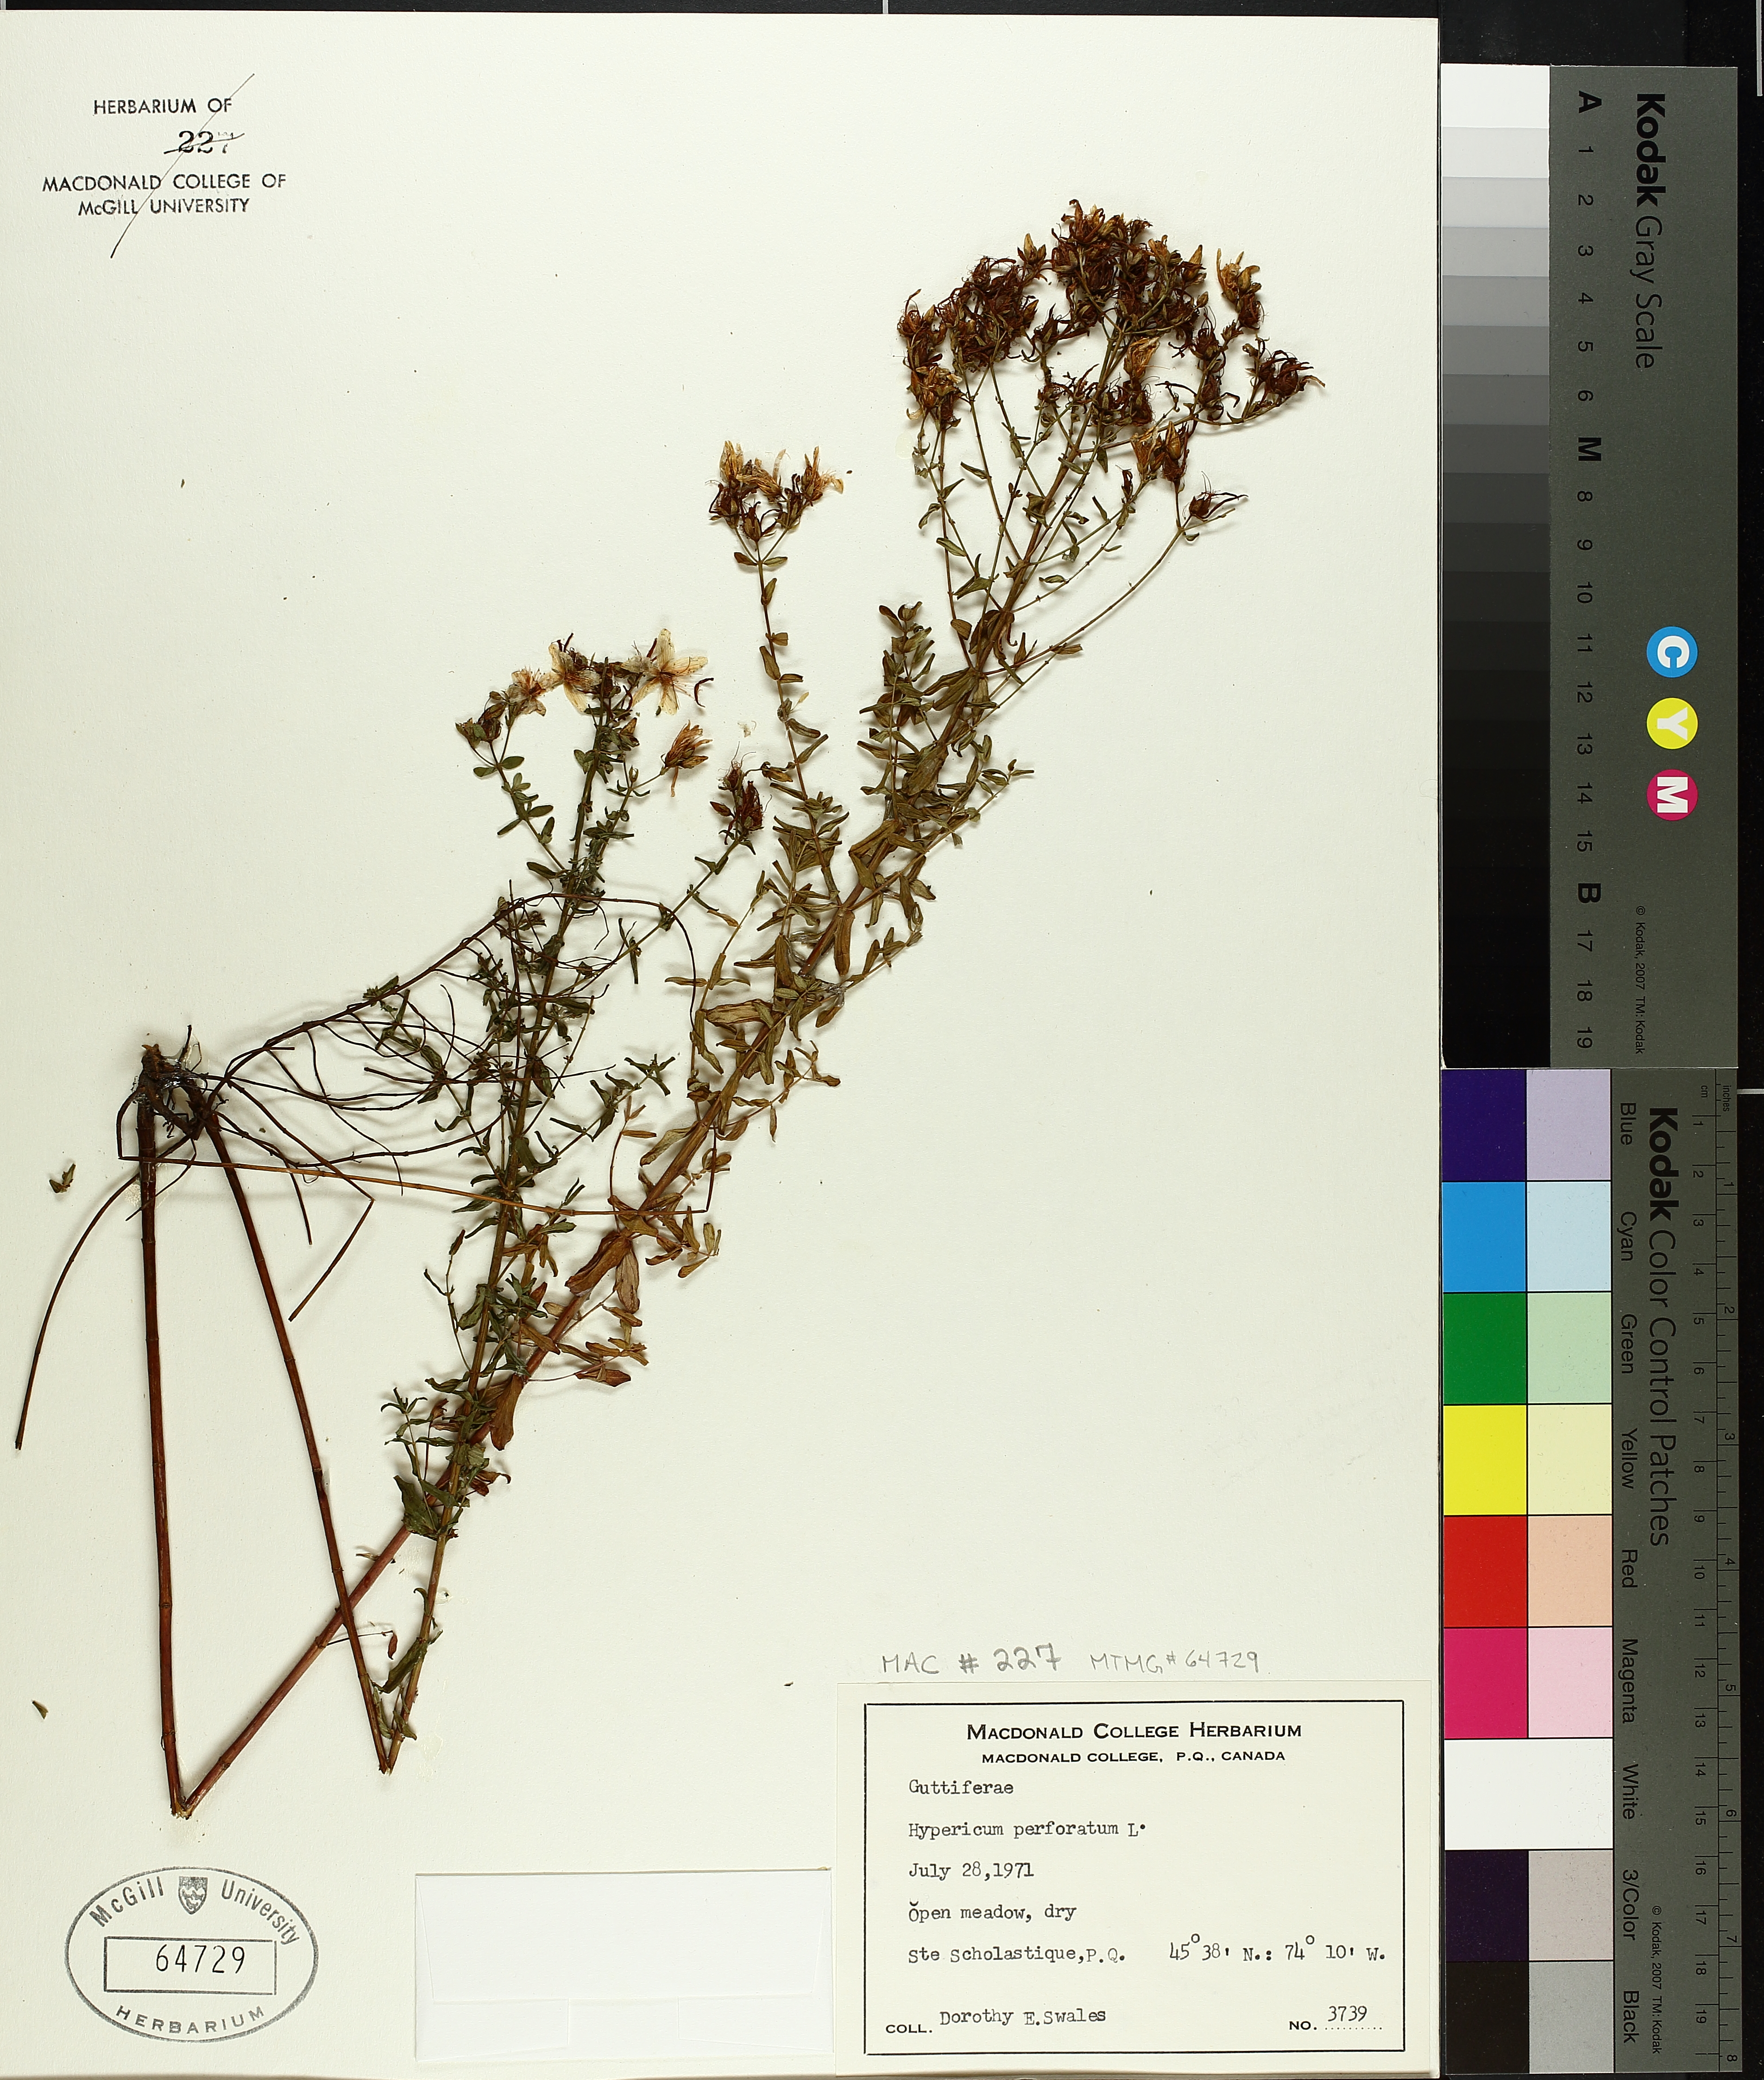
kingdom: Plantae
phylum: Tracheophyta
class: Magnoliopsida
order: Malpighiales
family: Hypericaceae
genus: Hypericum
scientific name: Hypericum perforatum
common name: Common st. johnswort
